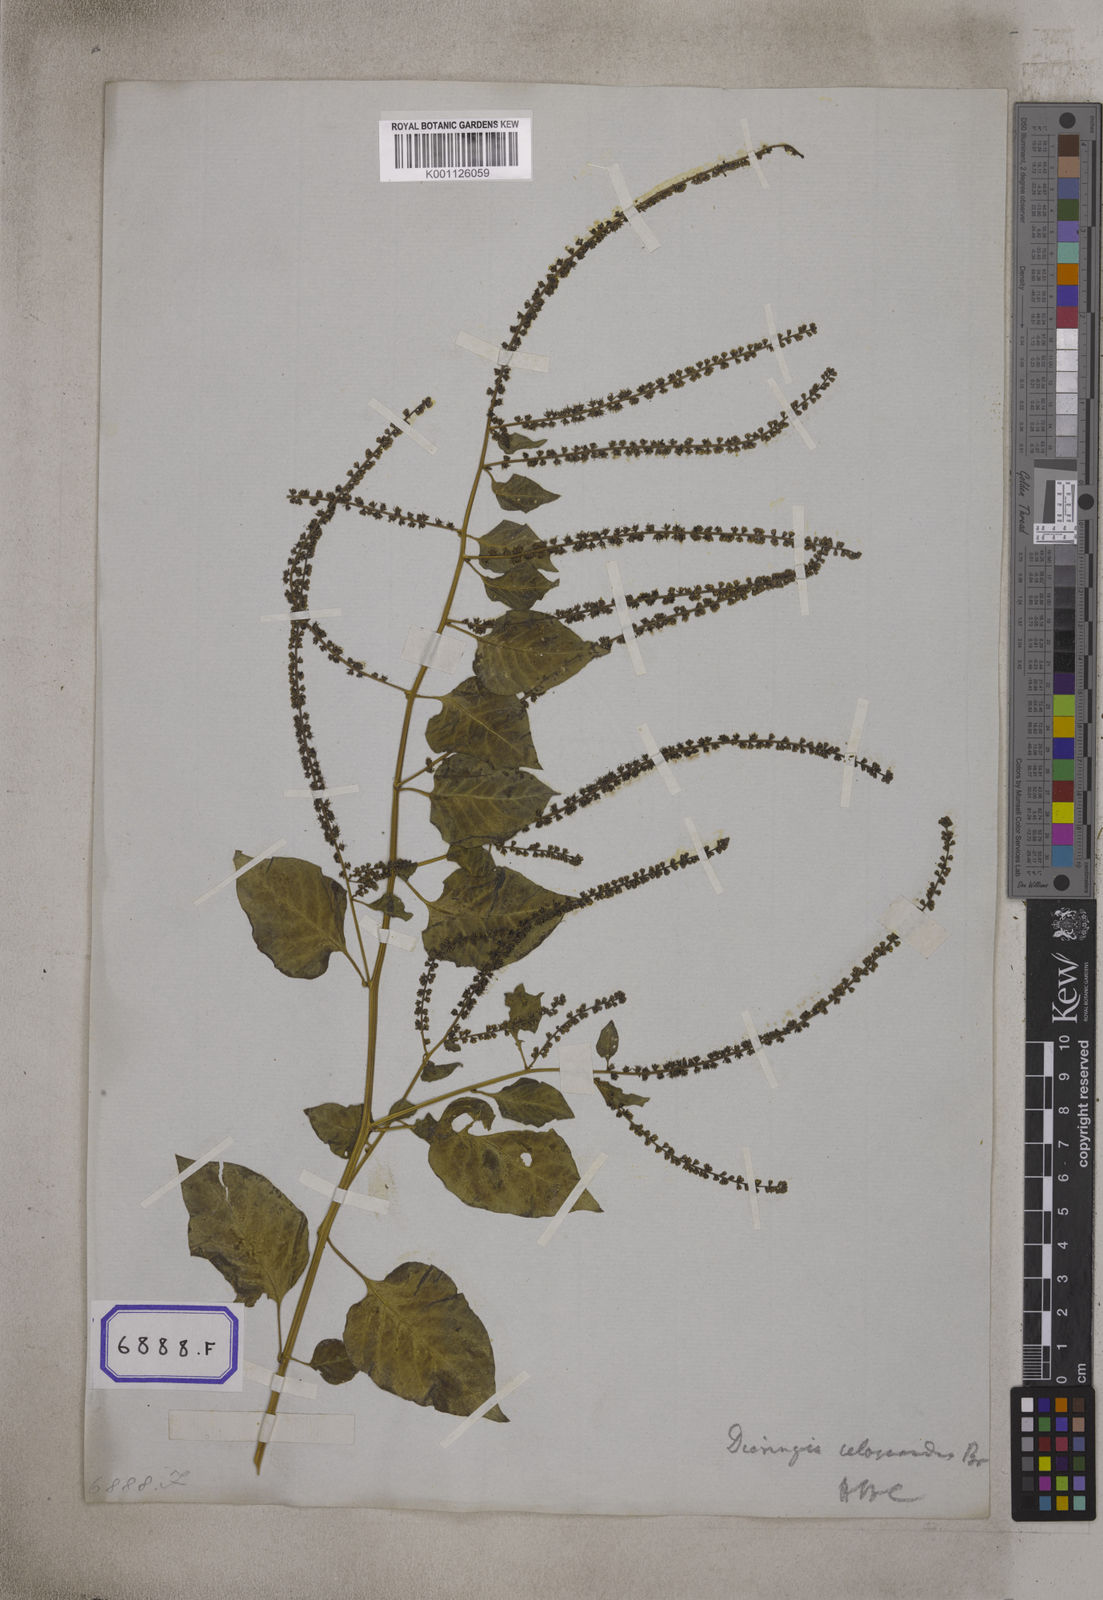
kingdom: Plantae
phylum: Tracheophyta
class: Magnoliopsida
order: Caryophyllales
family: Amaranthaceae
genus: Deeringia
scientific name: Deeringia amaranthoides
